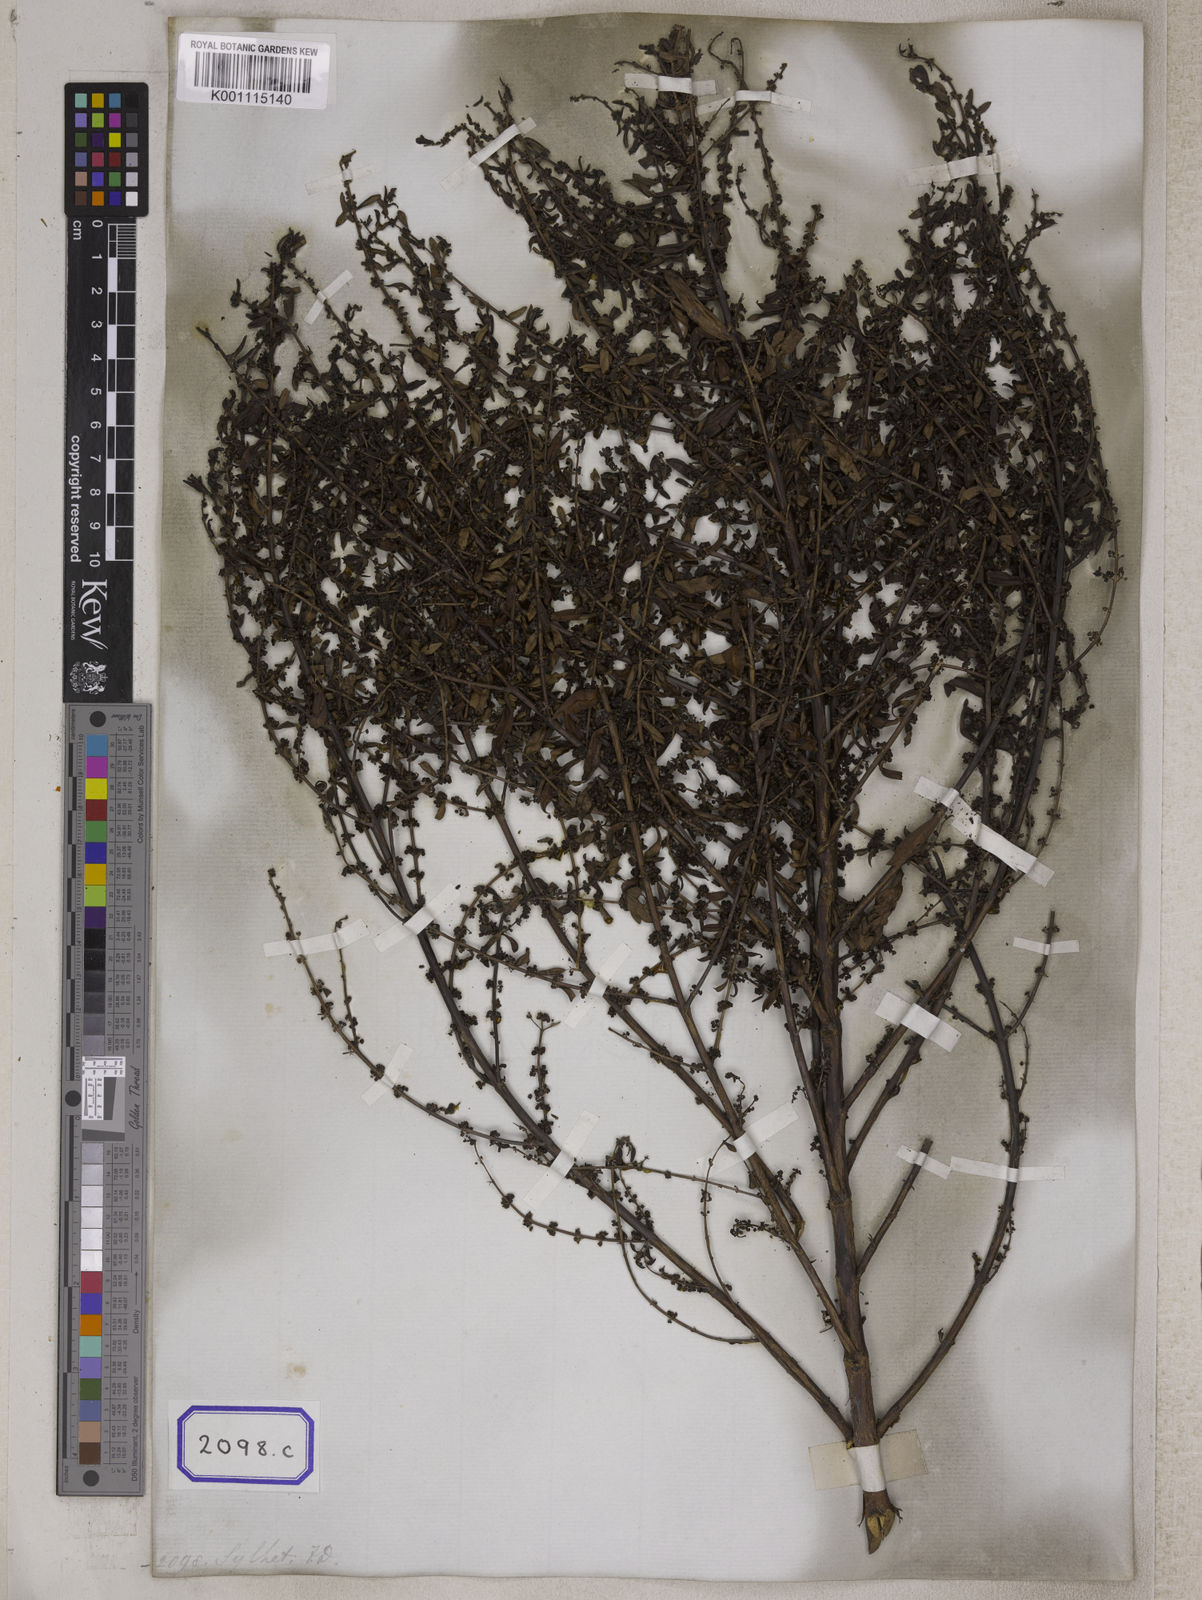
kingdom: Plantae
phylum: Tracheophyta
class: Magnoliopsida
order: Myrtales
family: Lythraceae
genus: Ammannia
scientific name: Ammannia baccifera
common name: Blistering ammania
